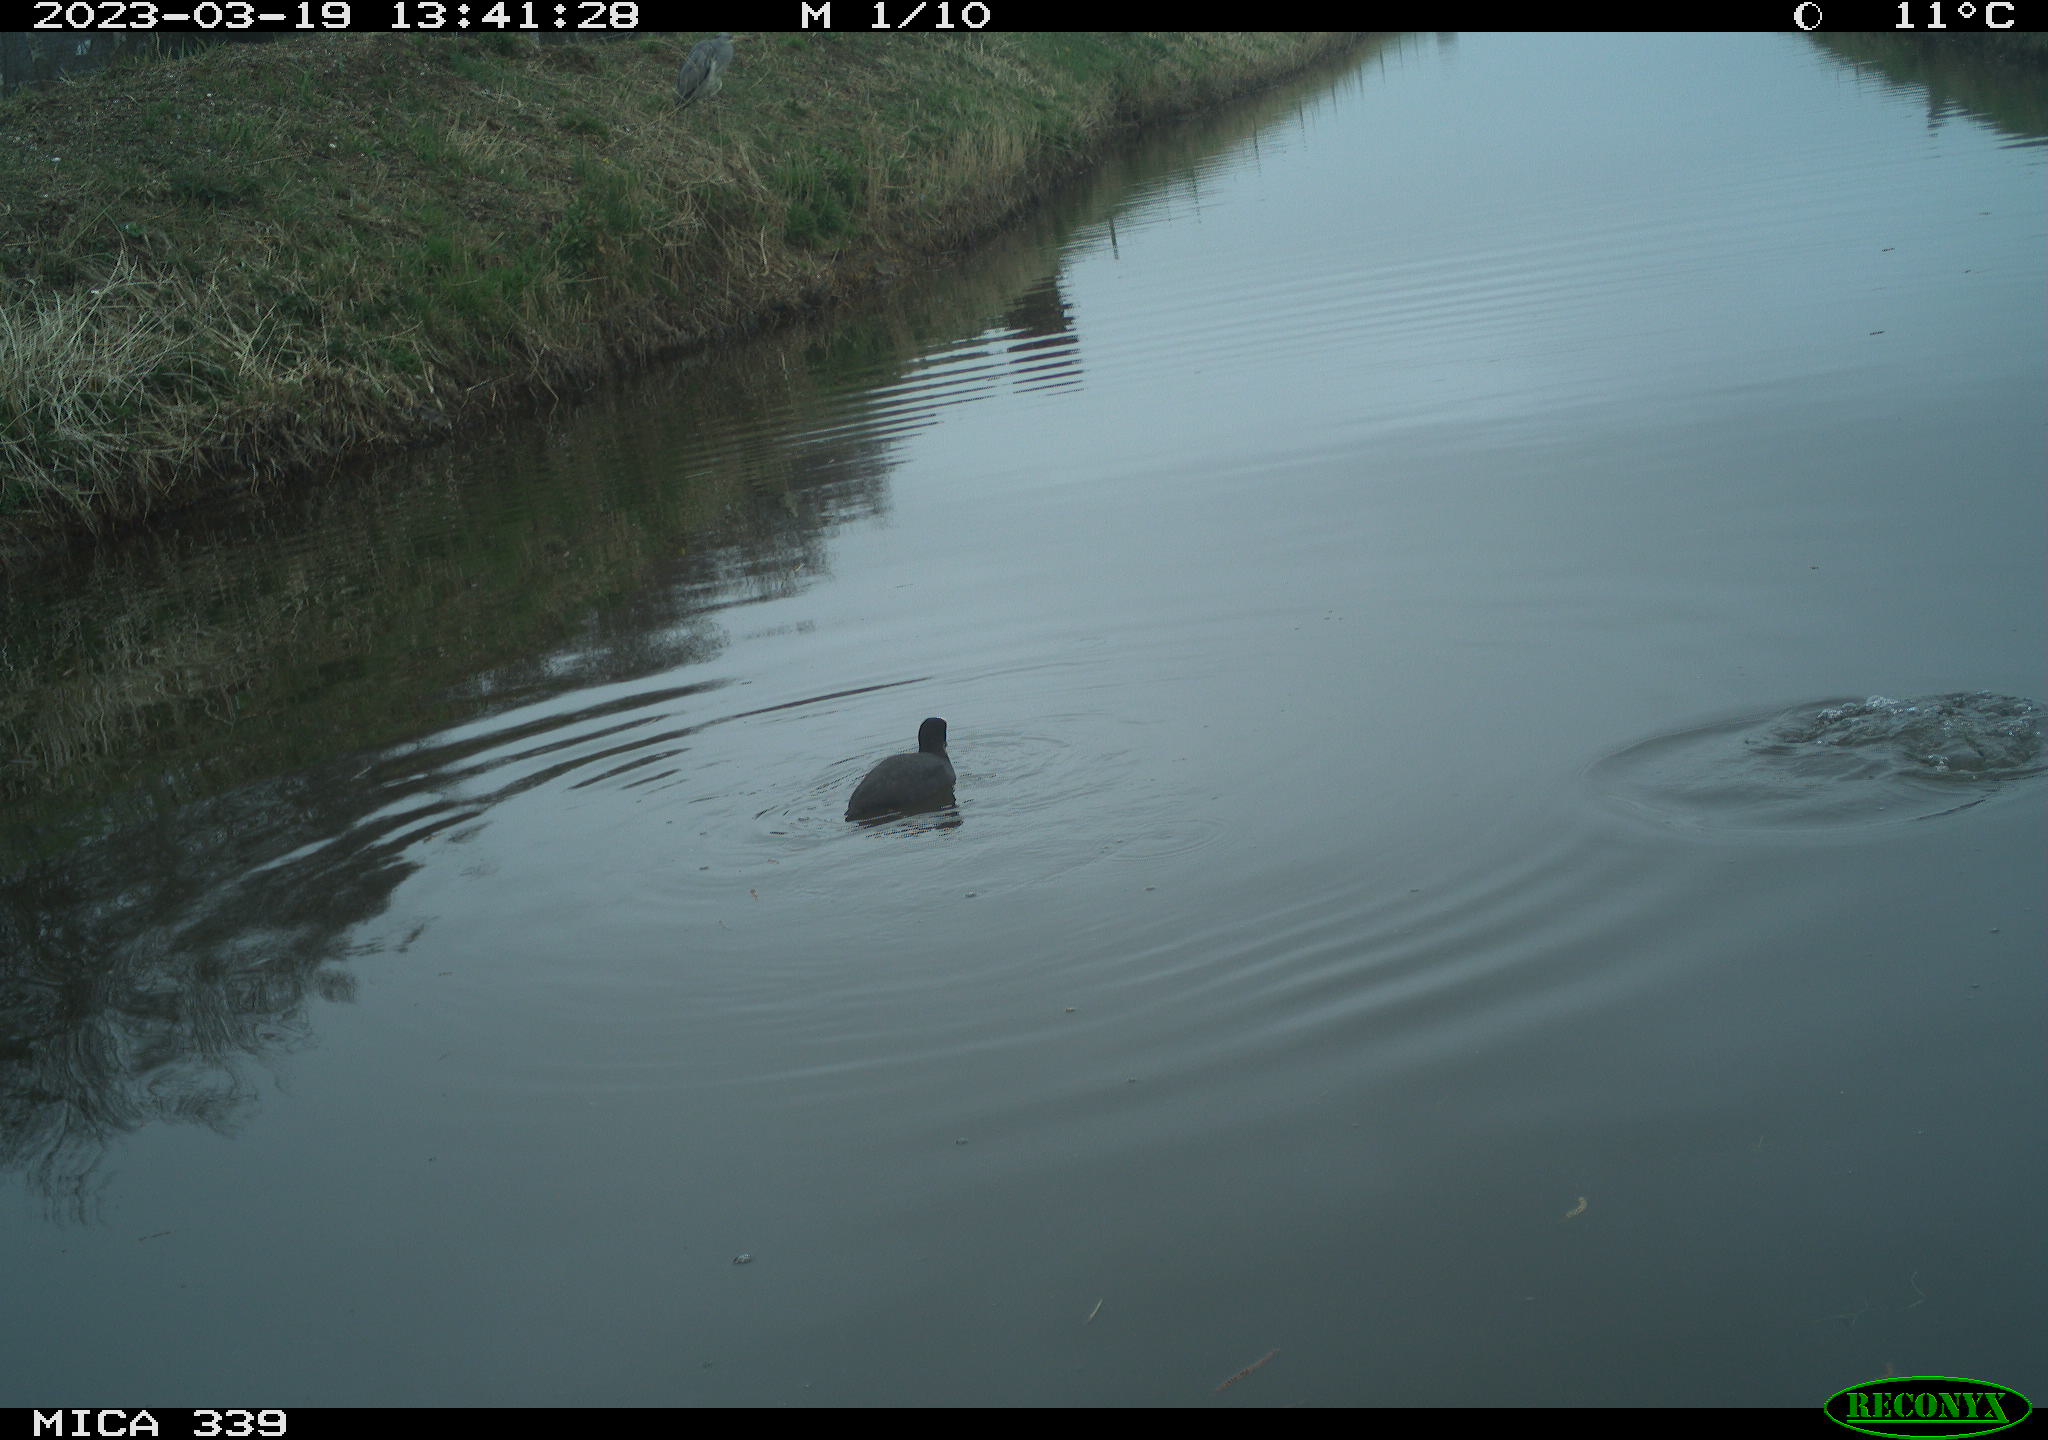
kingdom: Animalia
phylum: Chordata
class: Aves
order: Pelecaniformes
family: Ardeidae
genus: Ardea
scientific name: Ardea cinerea
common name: Grey heron
